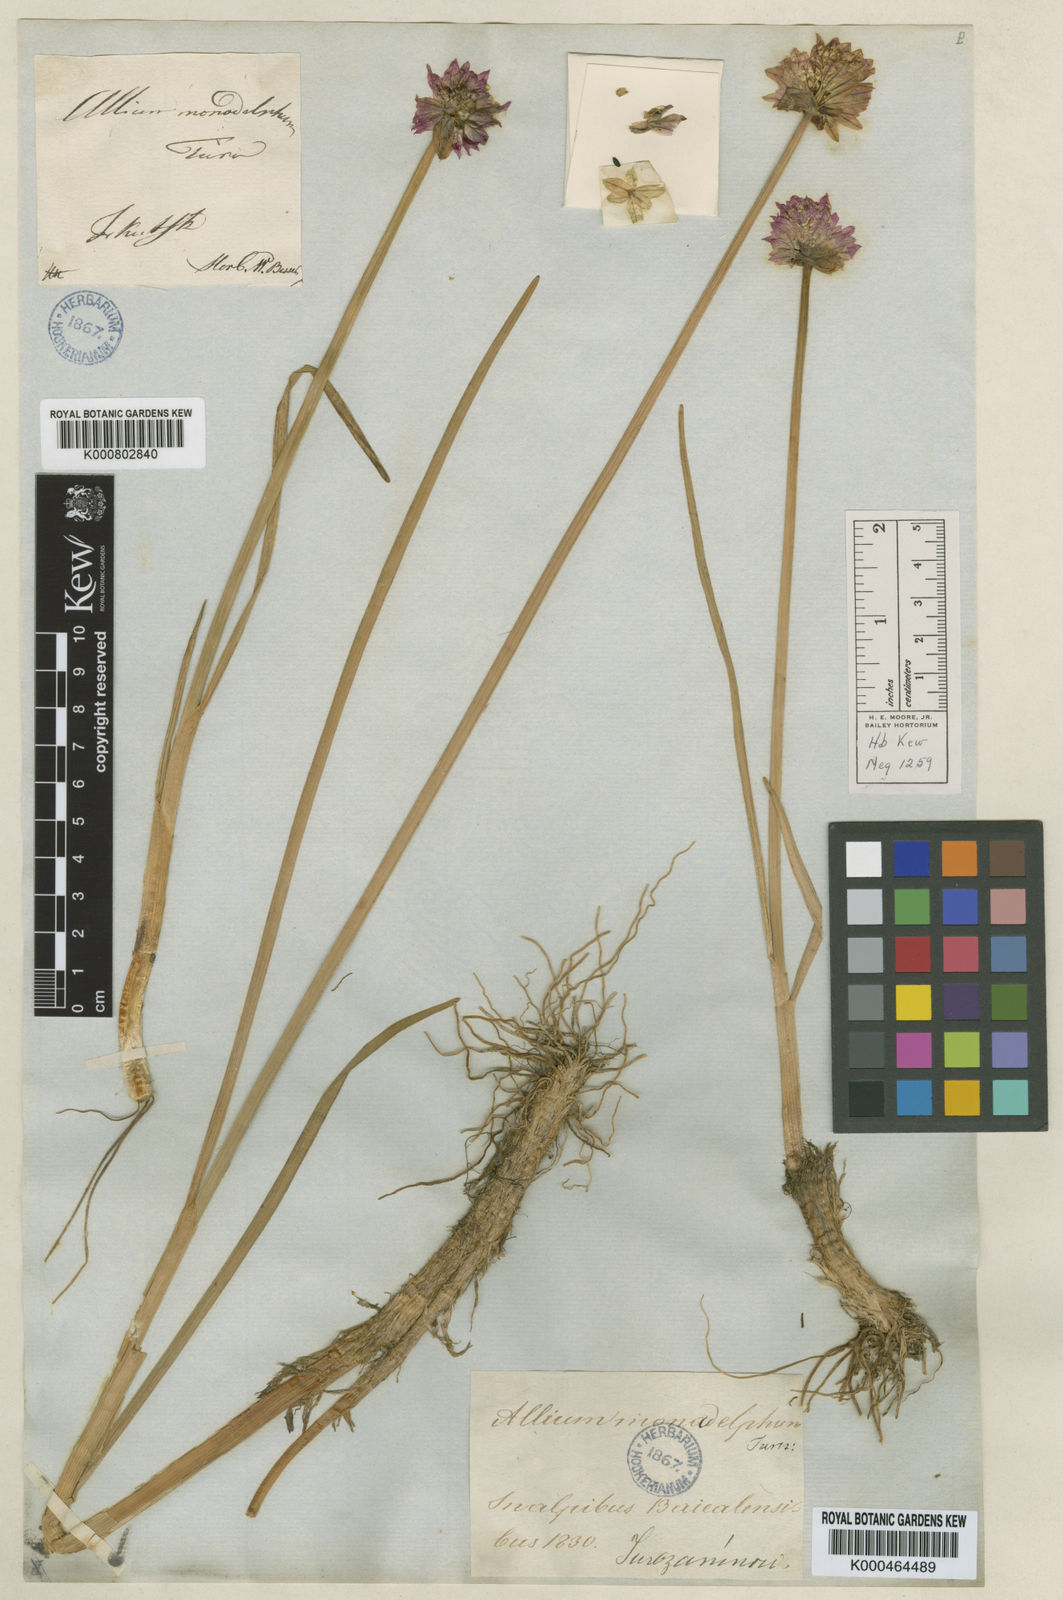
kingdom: Plantae
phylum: Tracheophyta
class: Liliopsida
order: Asparagales
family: Amaryllidaceae
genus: Allium
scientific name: Allium atrosanguineum
